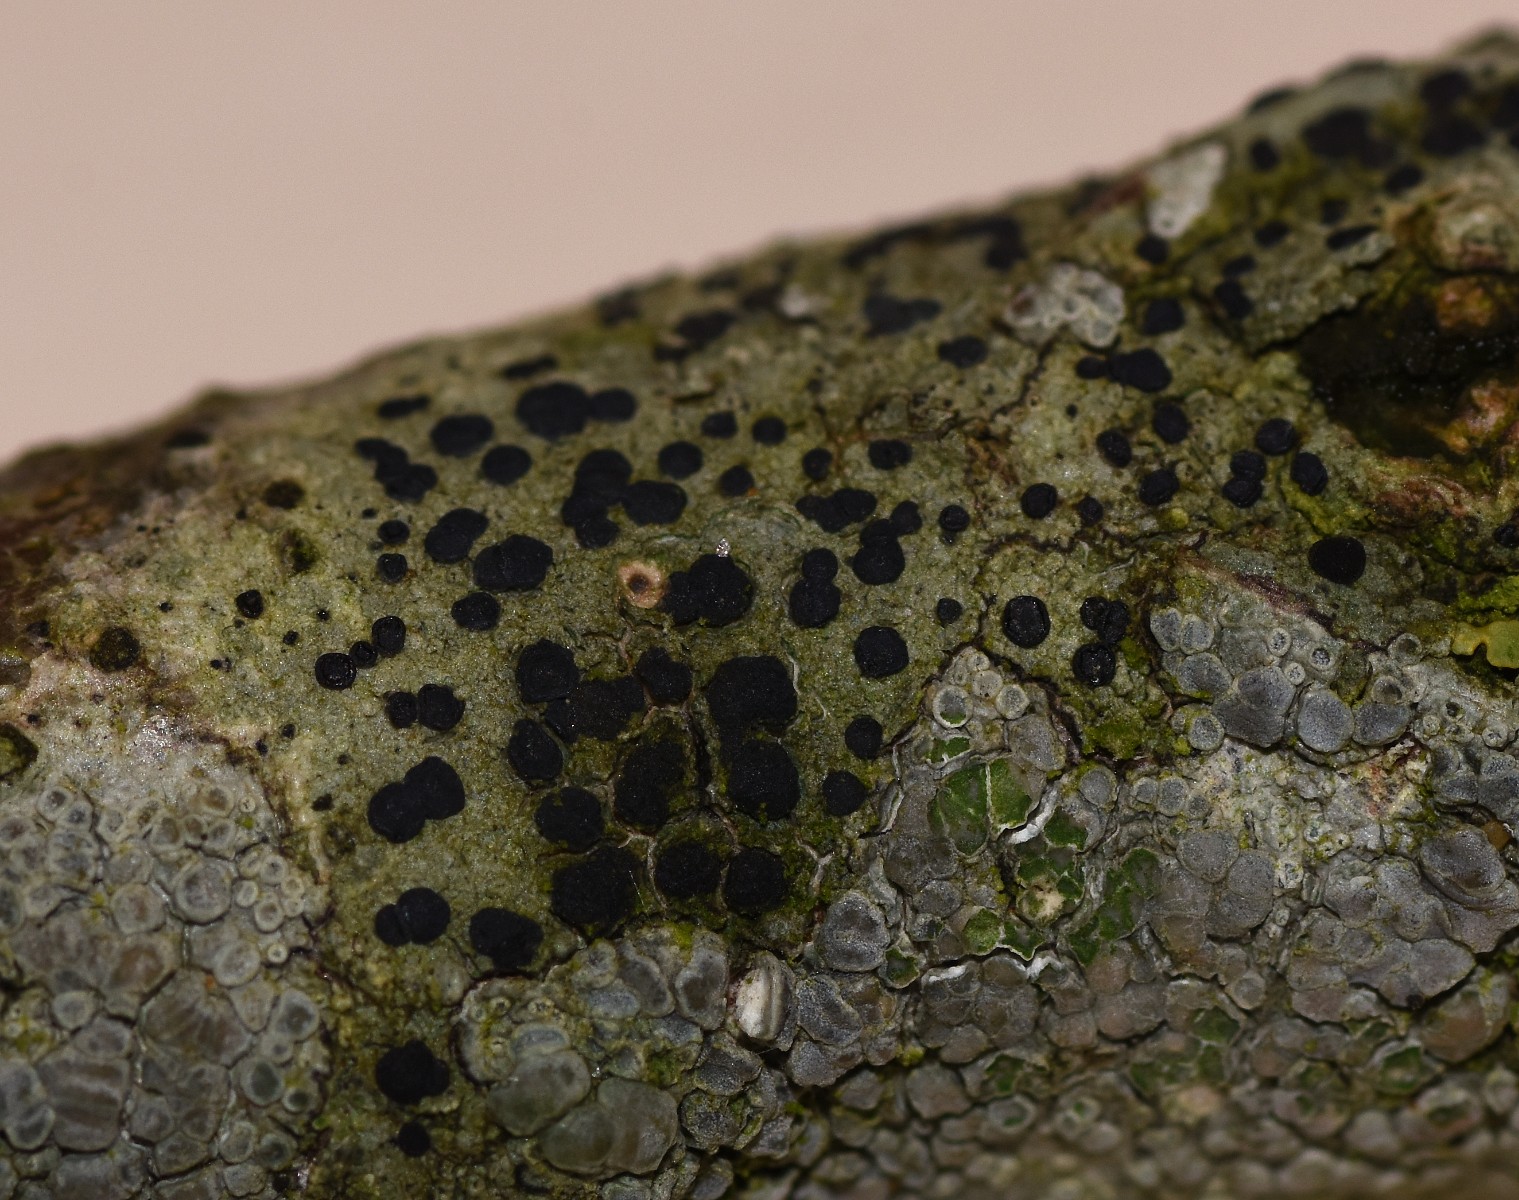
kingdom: Fungi
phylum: Ascomycota
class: Lecanoromycetes
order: Lecanorales
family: Lecanoraceae
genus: Lecidella
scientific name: Lecidella elaeochroma
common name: grågrøn skivelav
